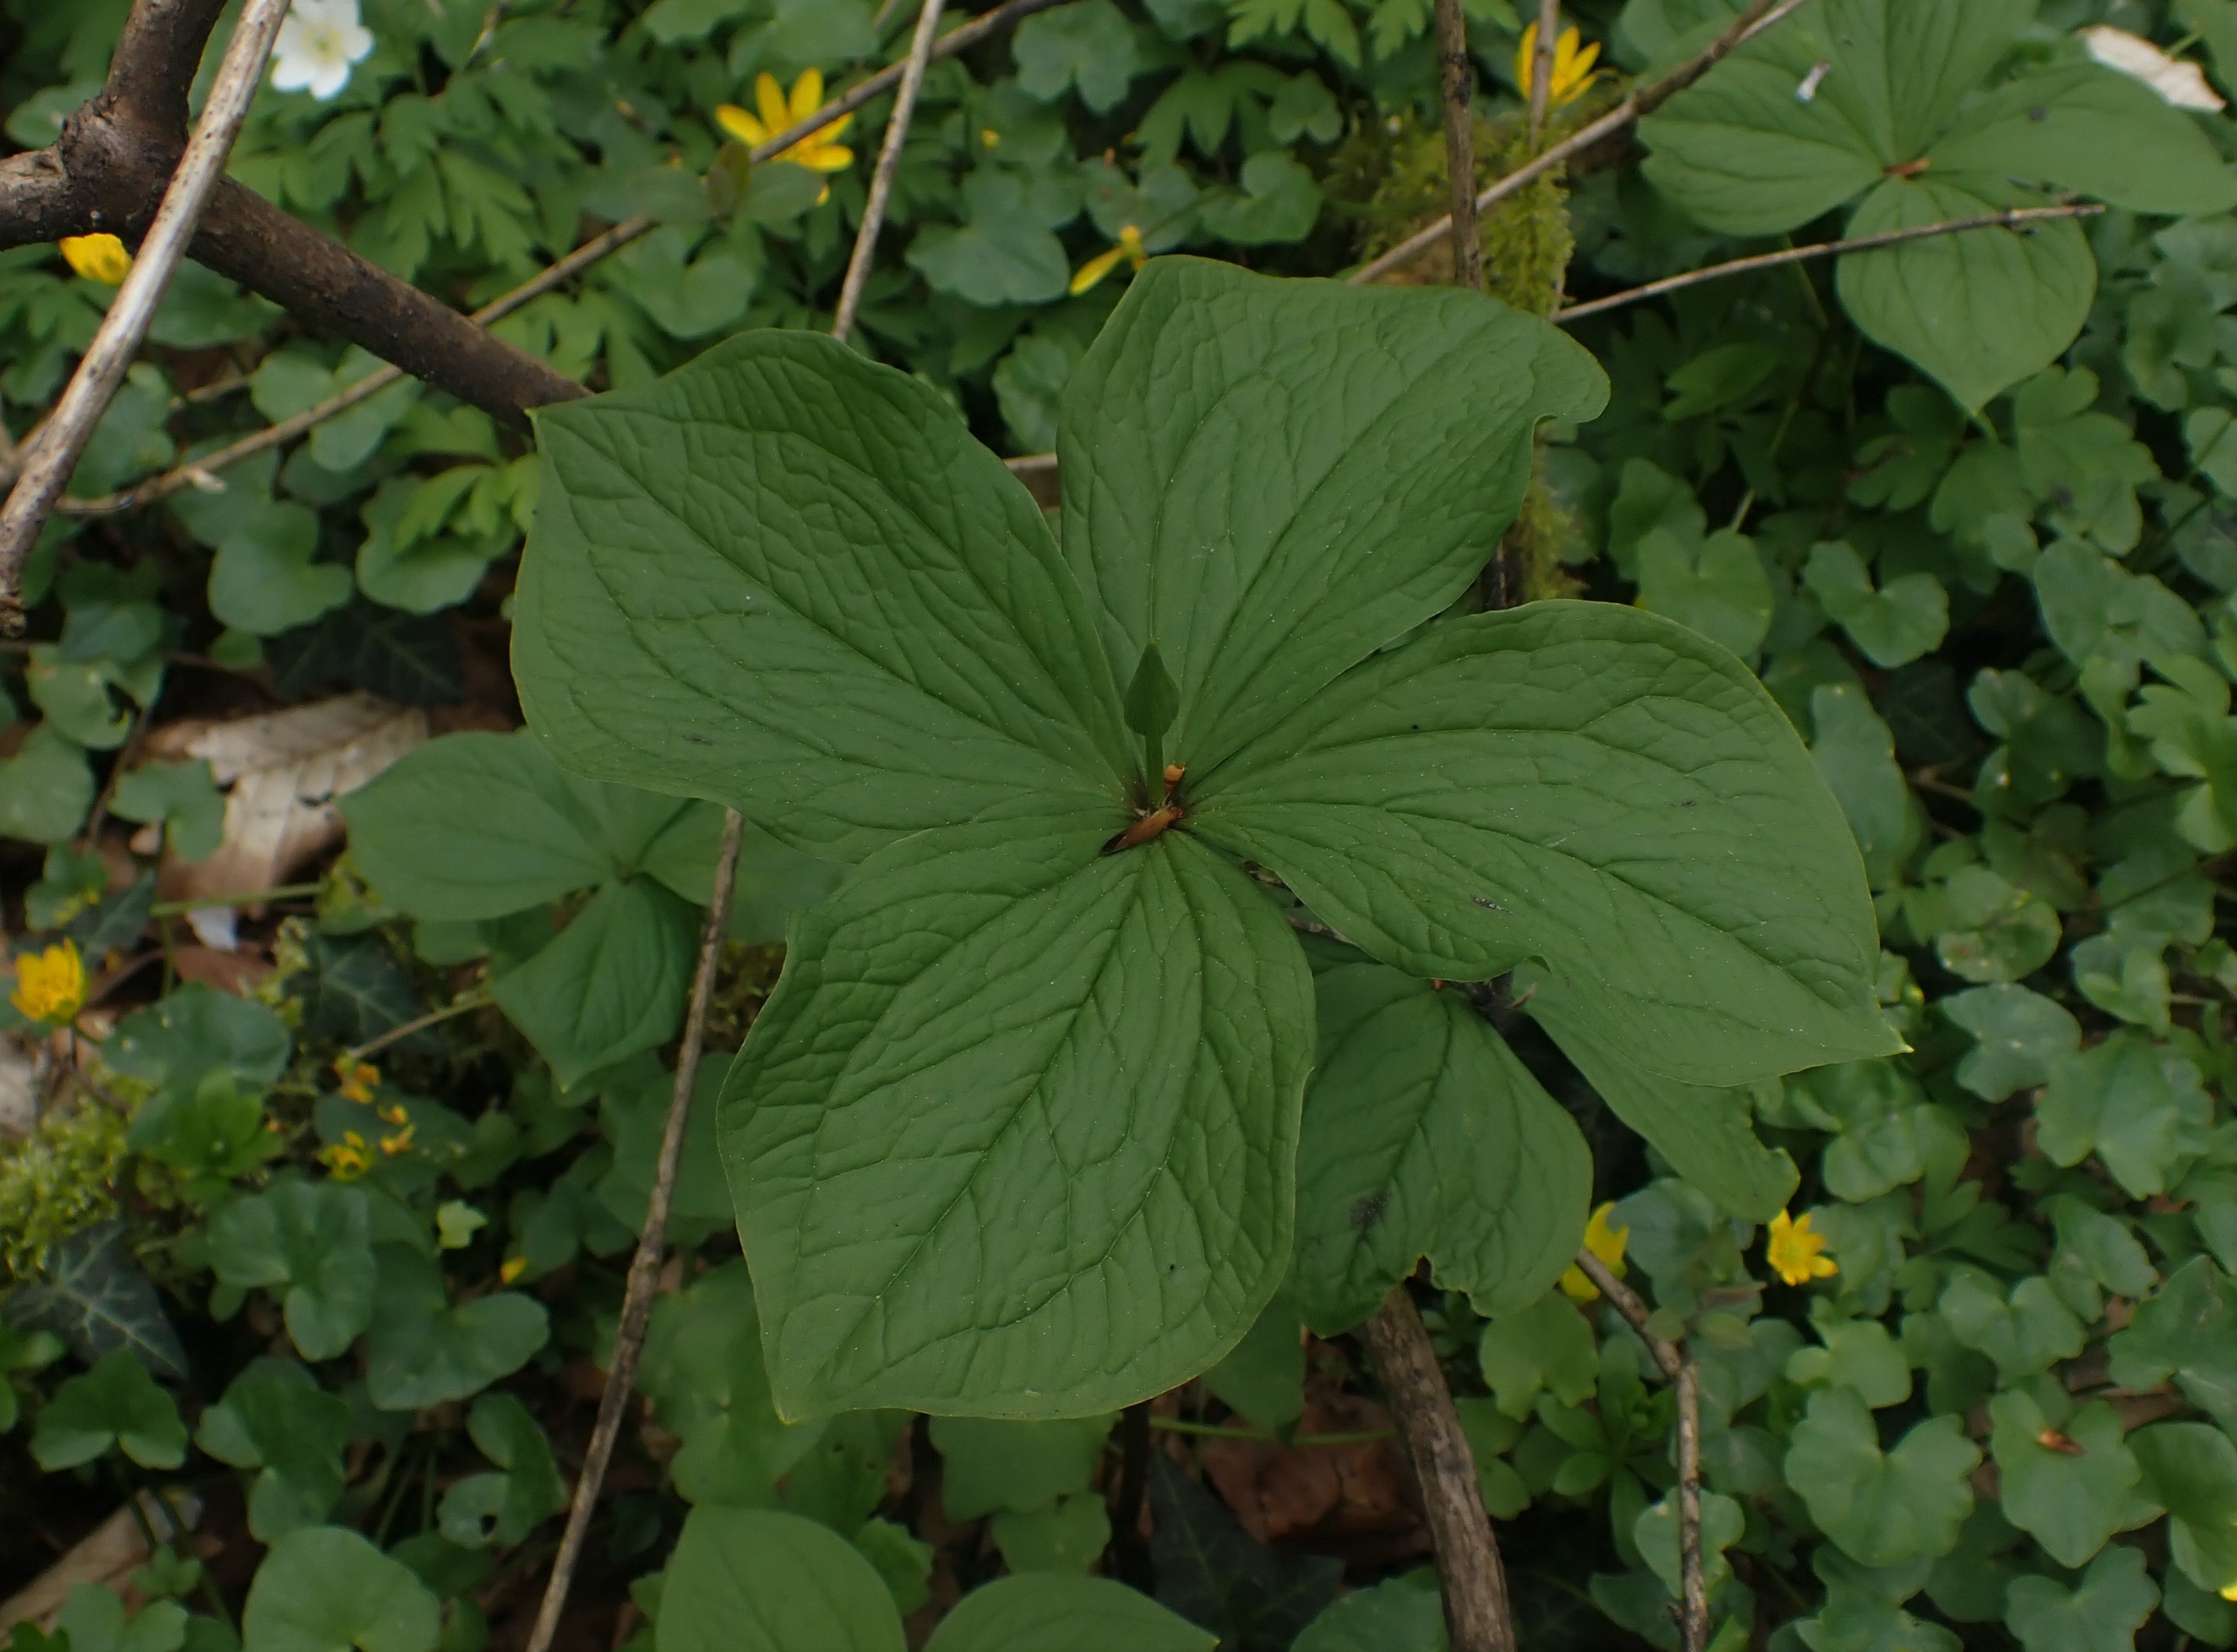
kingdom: Plantae
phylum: Tracheophyta
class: Liliopsida
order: Liliales
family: Melanthiaceae
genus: Paris
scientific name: Paris quadrifolia
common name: Firblad
